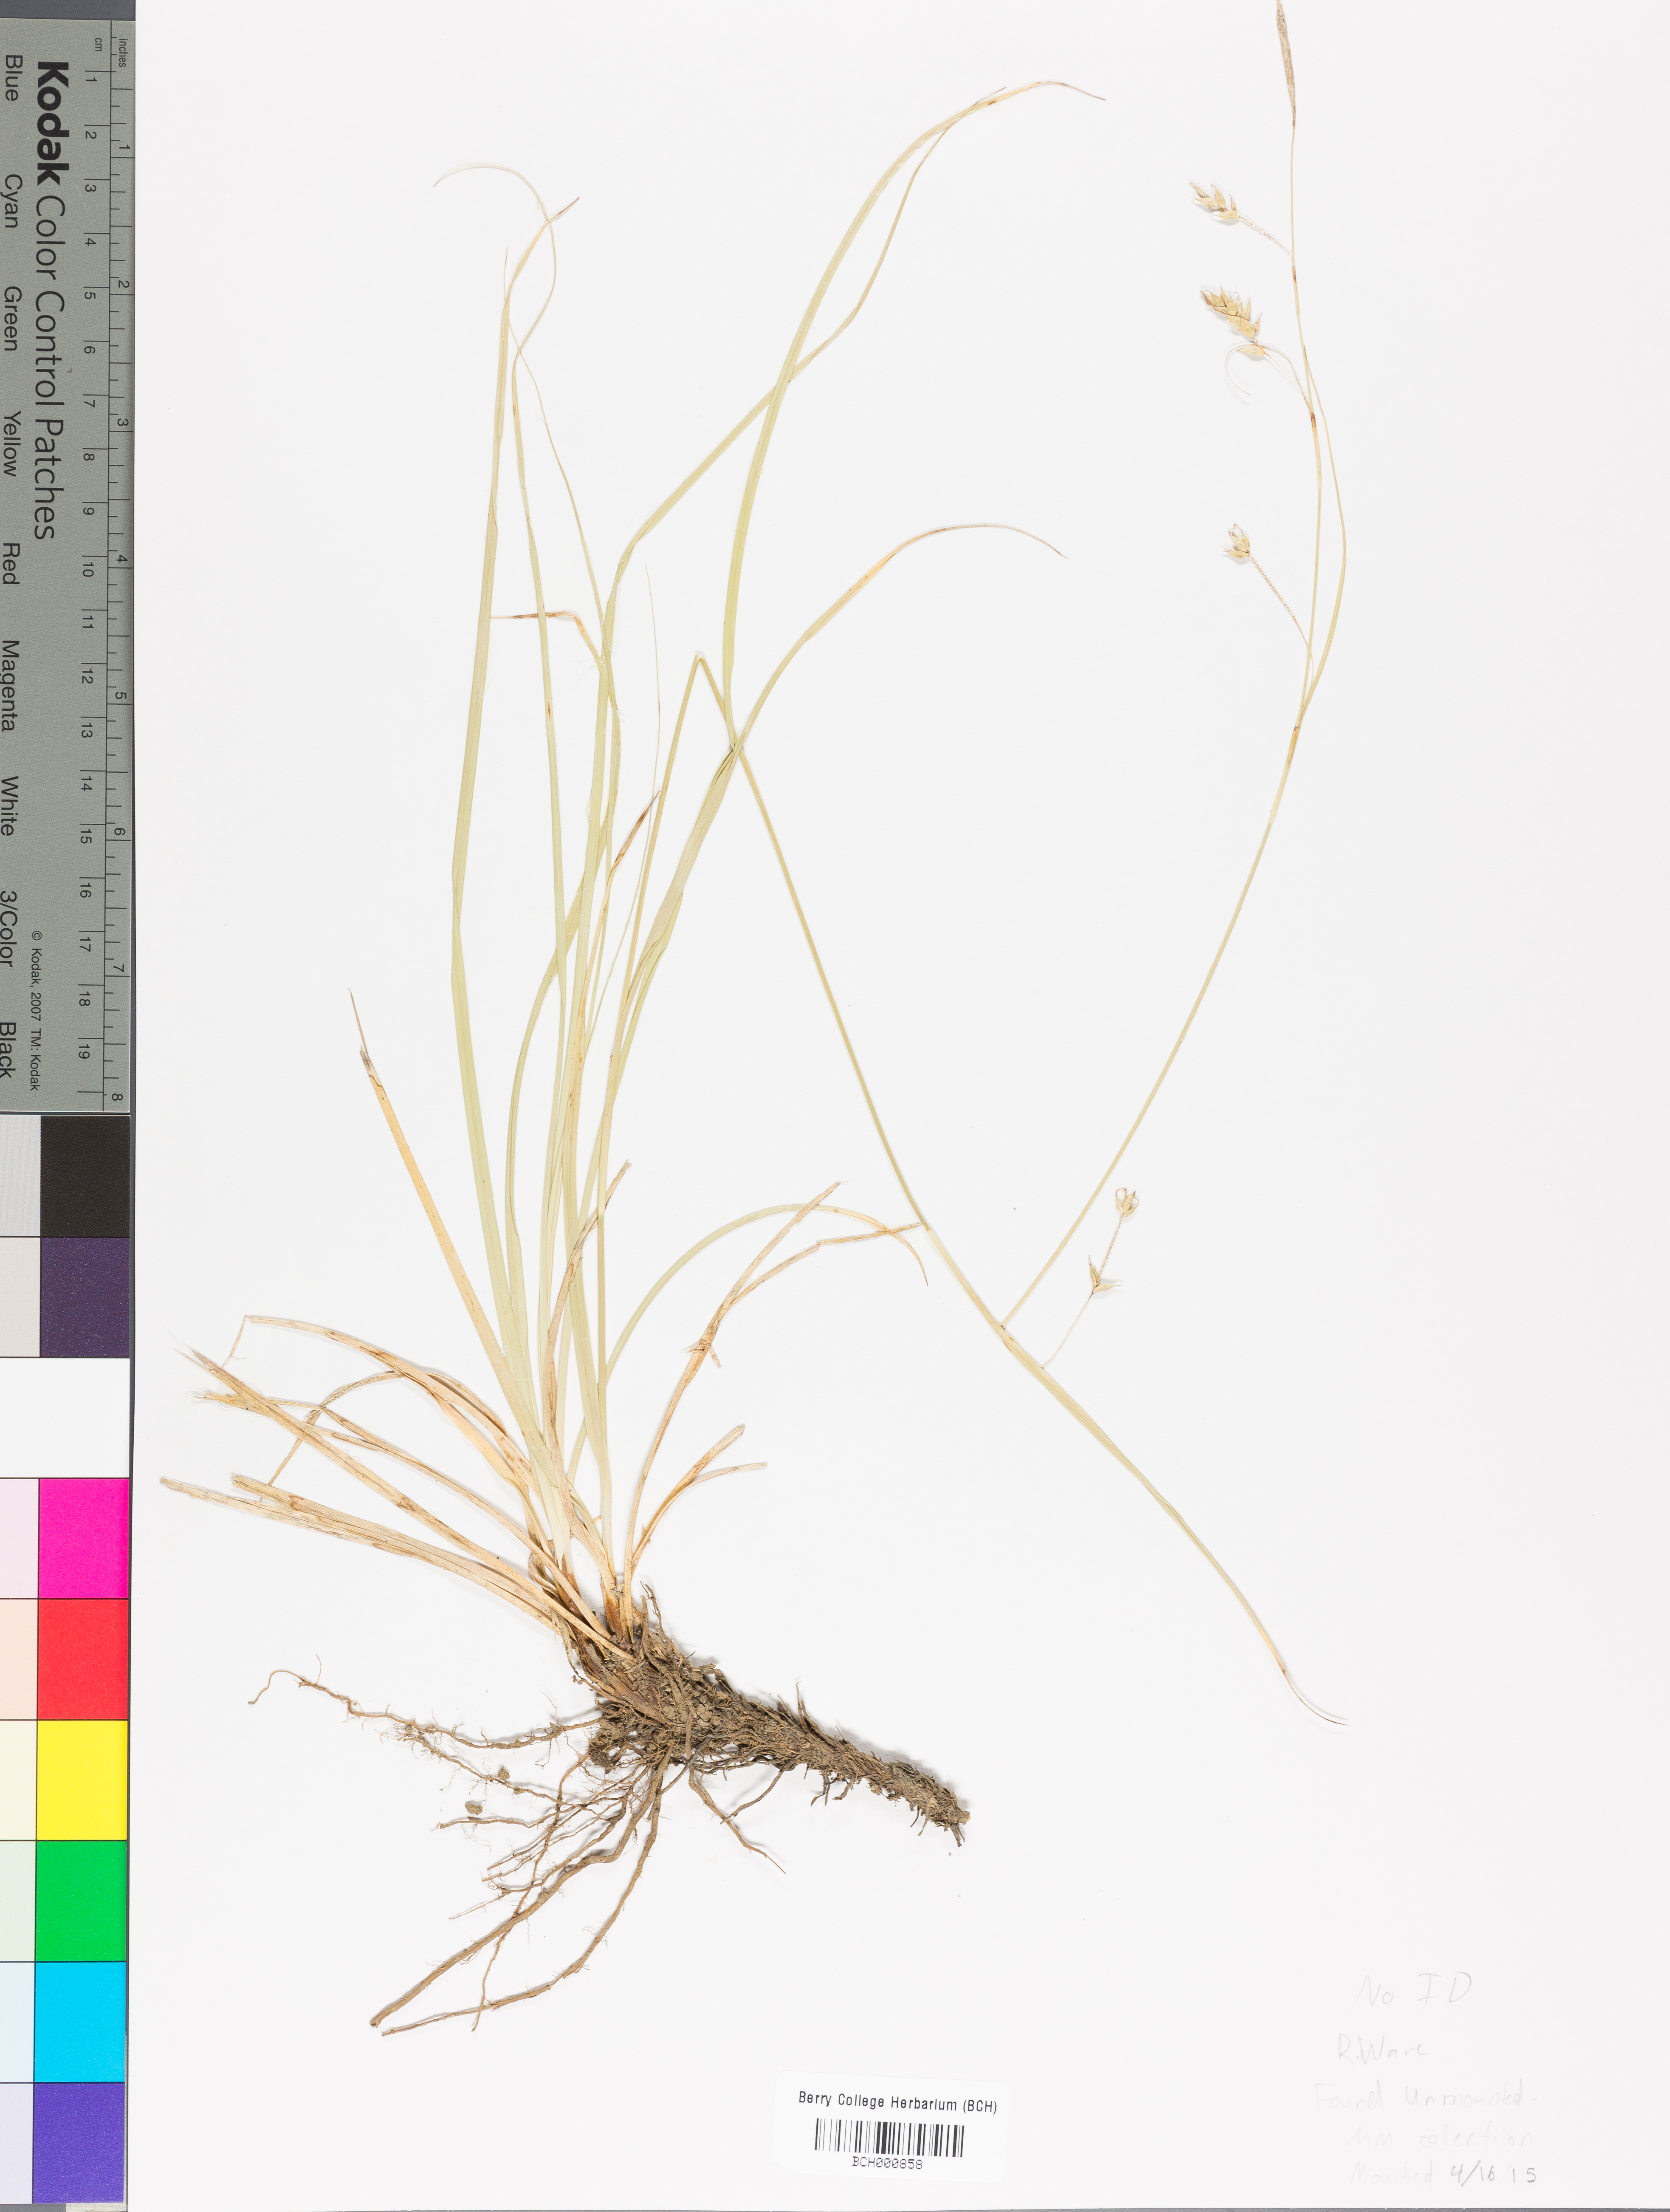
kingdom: Plantae
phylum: Tracheophyta
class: Magnoliopsida
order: Lamiales
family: Acanthaceae
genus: Adhatoda
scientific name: Adhatoda
